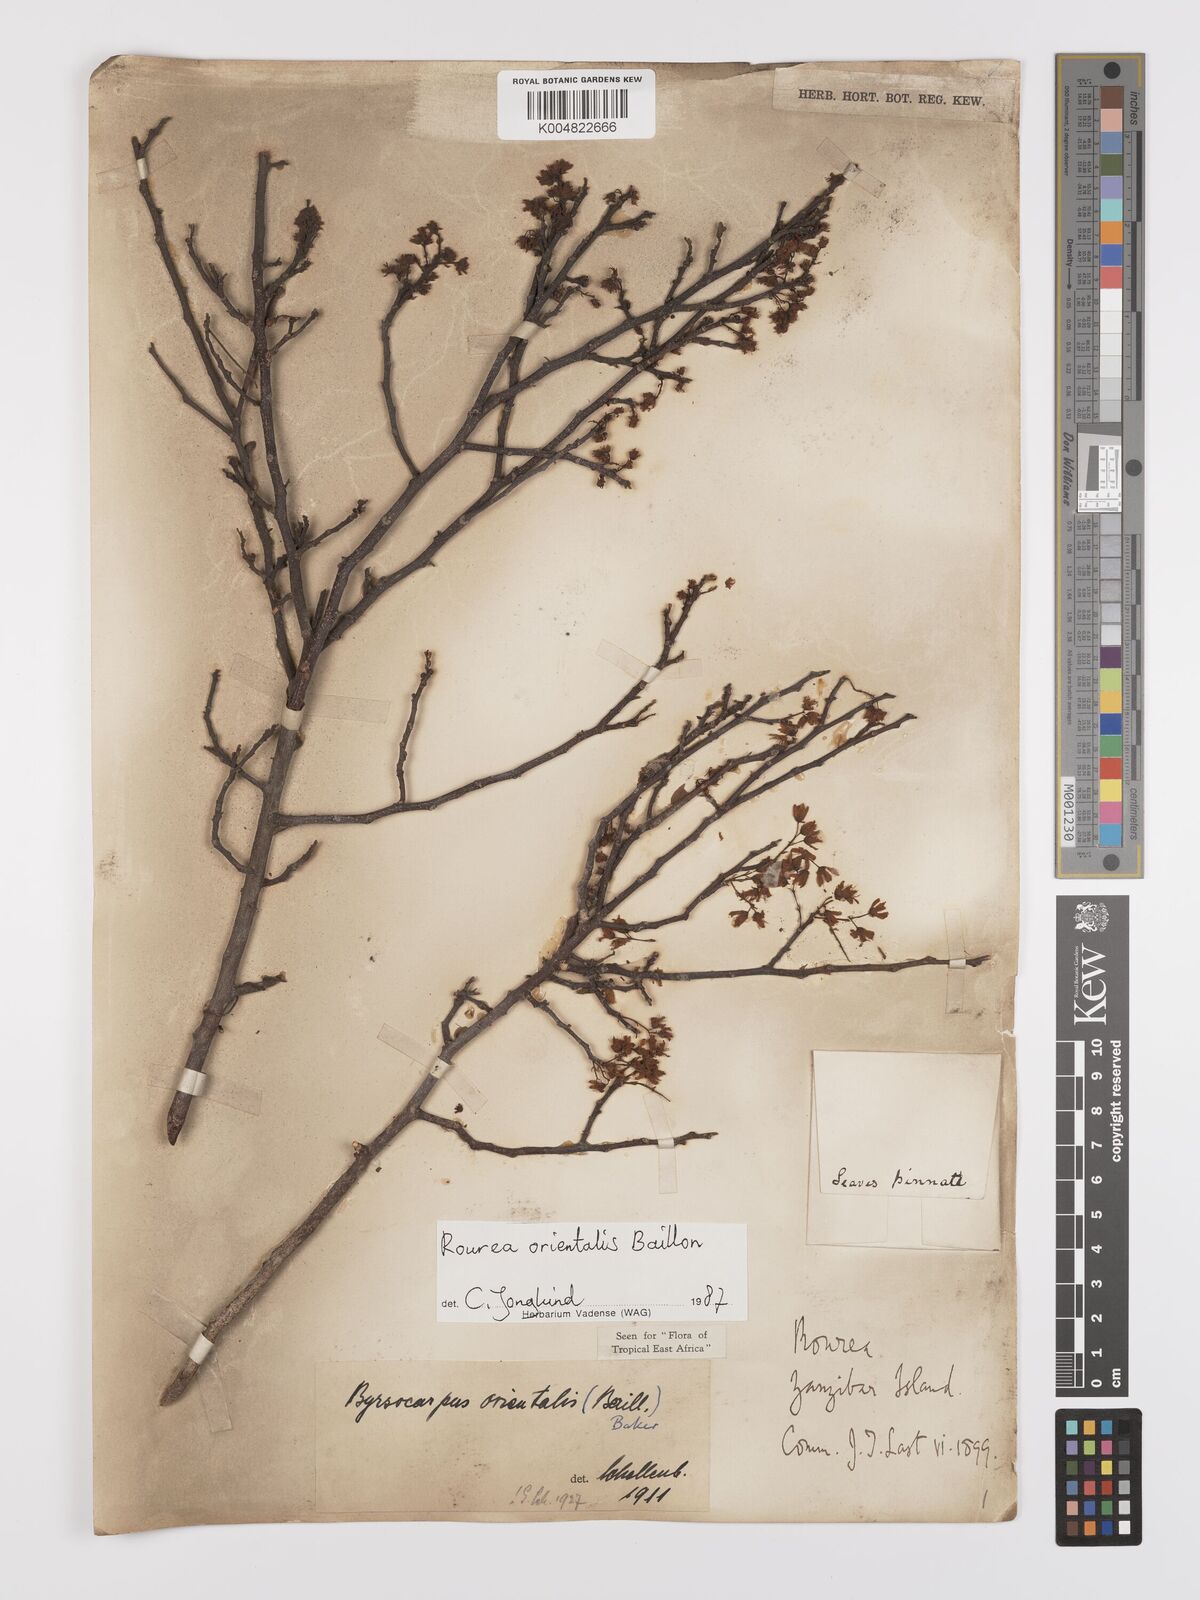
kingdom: Plantae
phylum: Tracheophyta
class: Magnoliopsida
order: Oxalidales
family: Connaraceae
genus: Rourea
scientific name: Rourea orientalis
